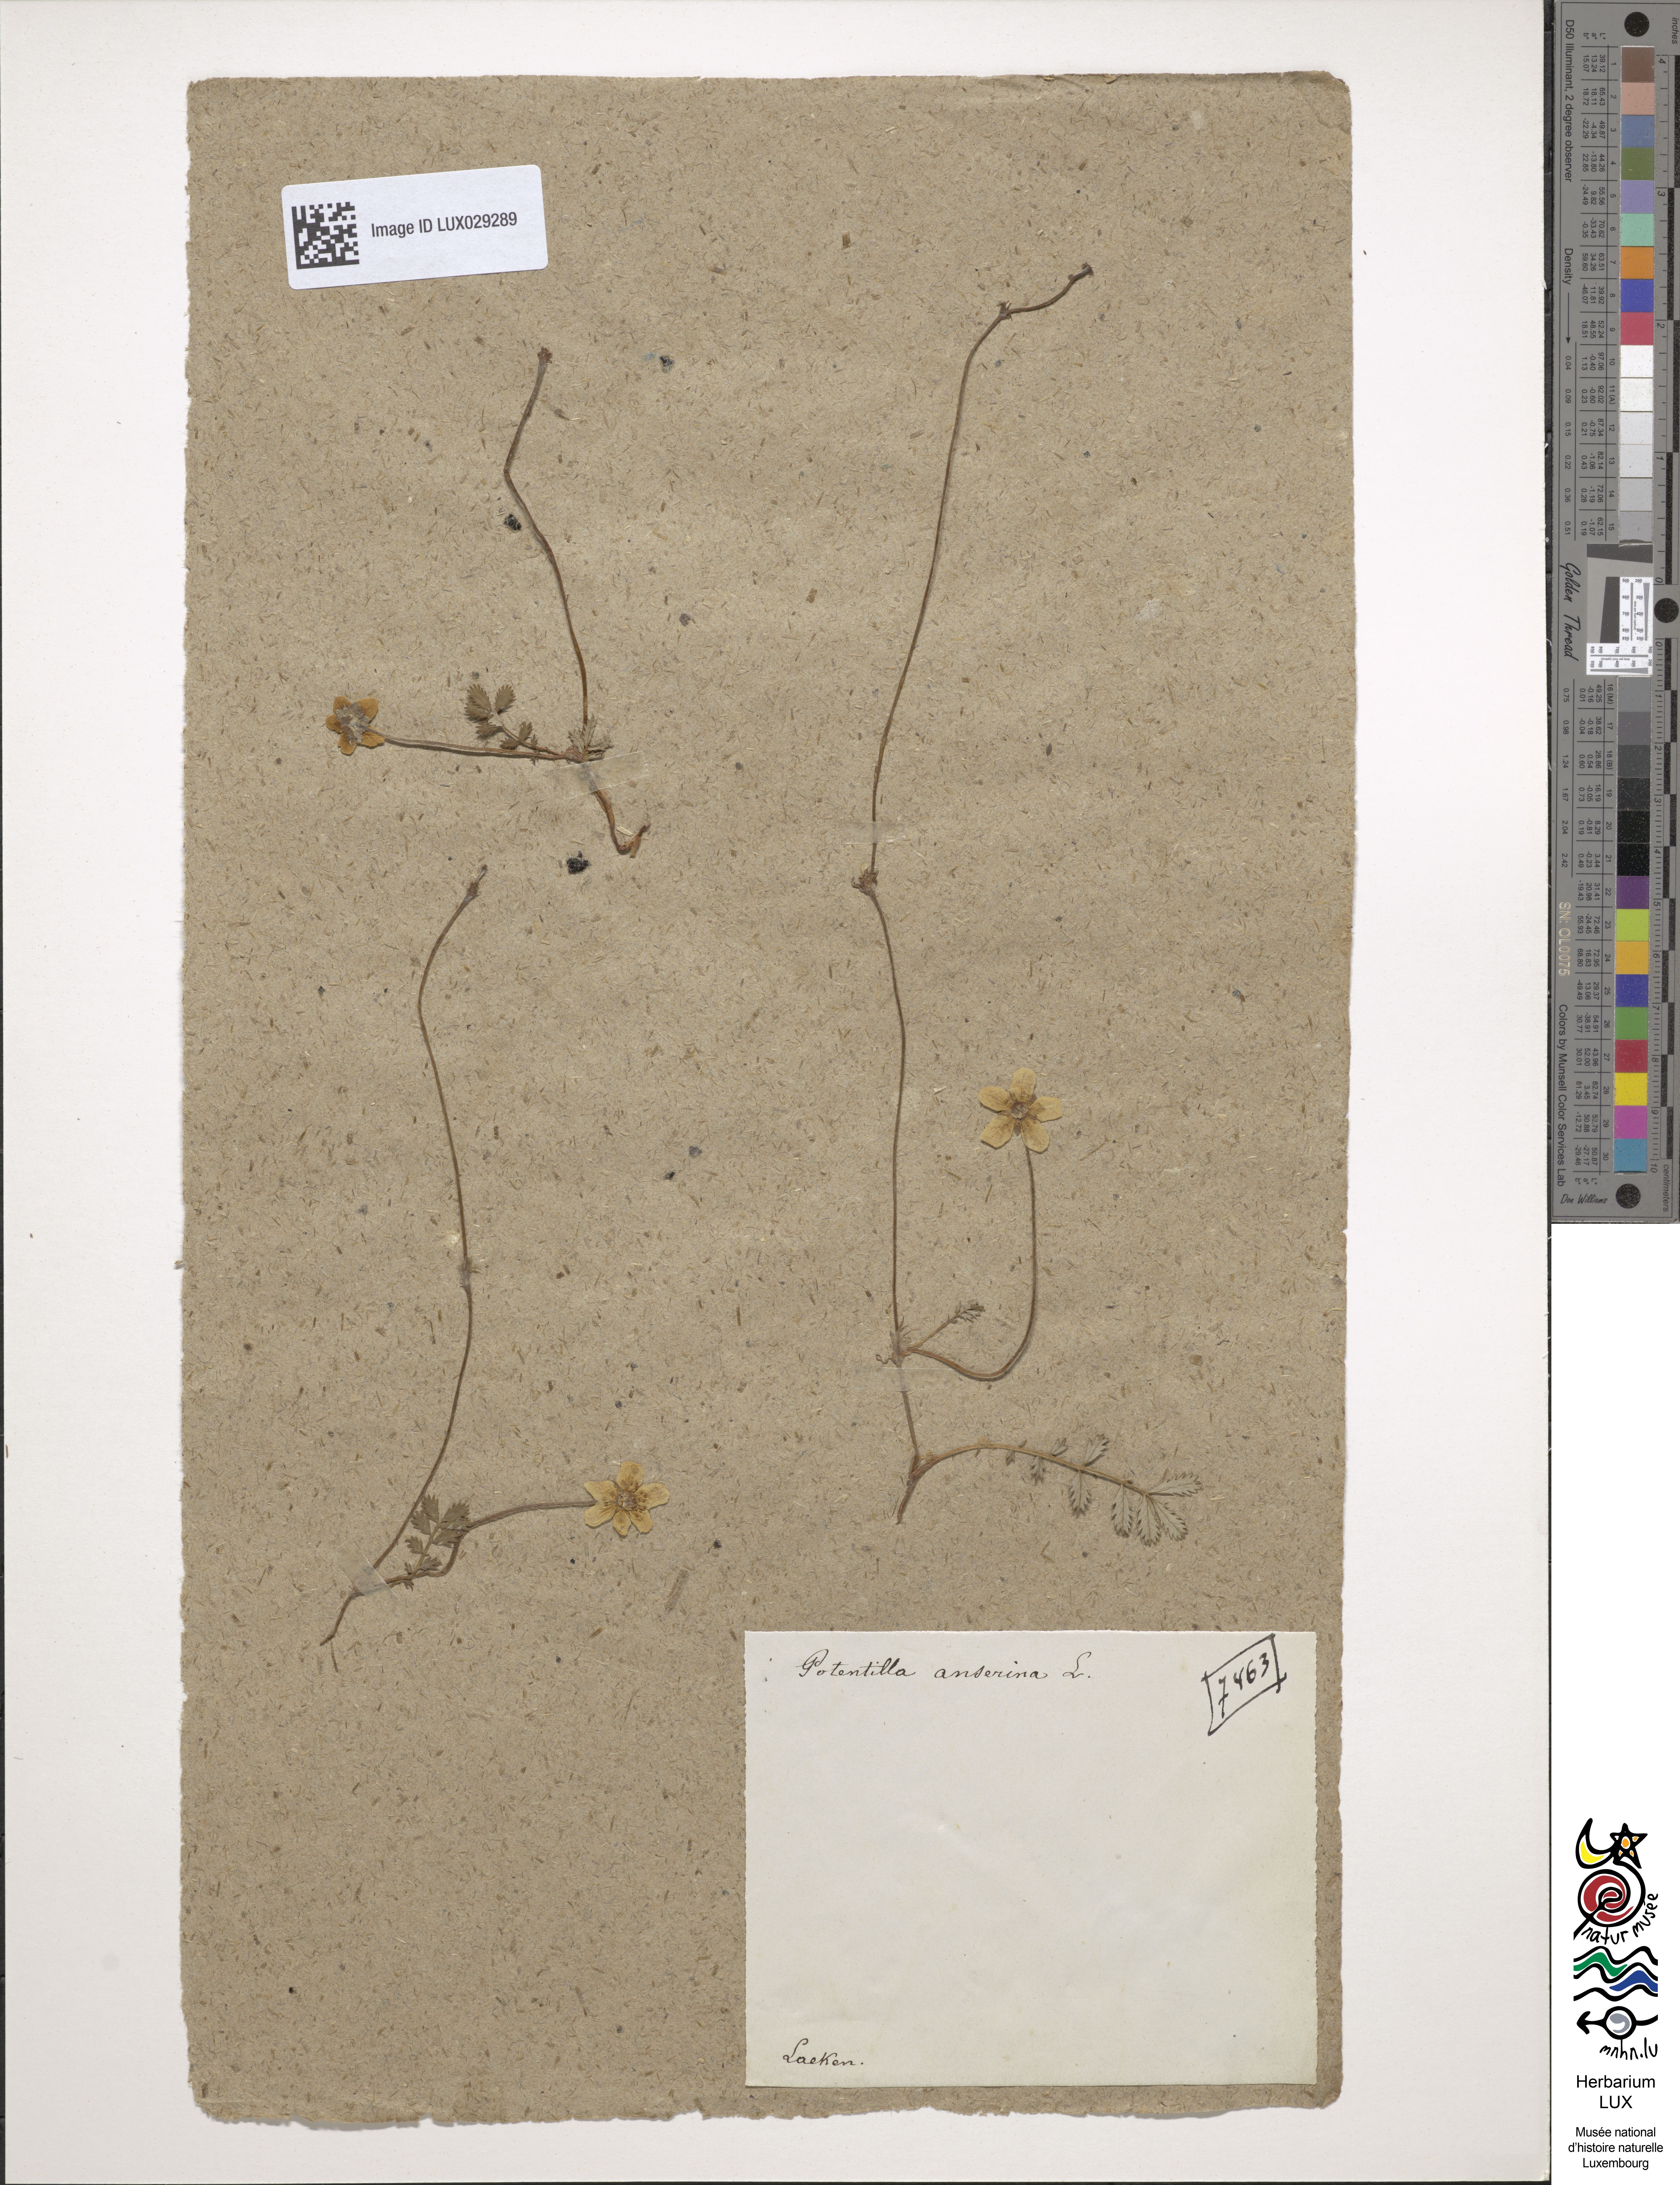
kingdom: Plantae
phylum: Tracheophyta
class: Magnoliopsida
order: Rosales
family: Rosaceae
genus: Argentina
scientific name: Argentina anserina
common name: Common silverweed
